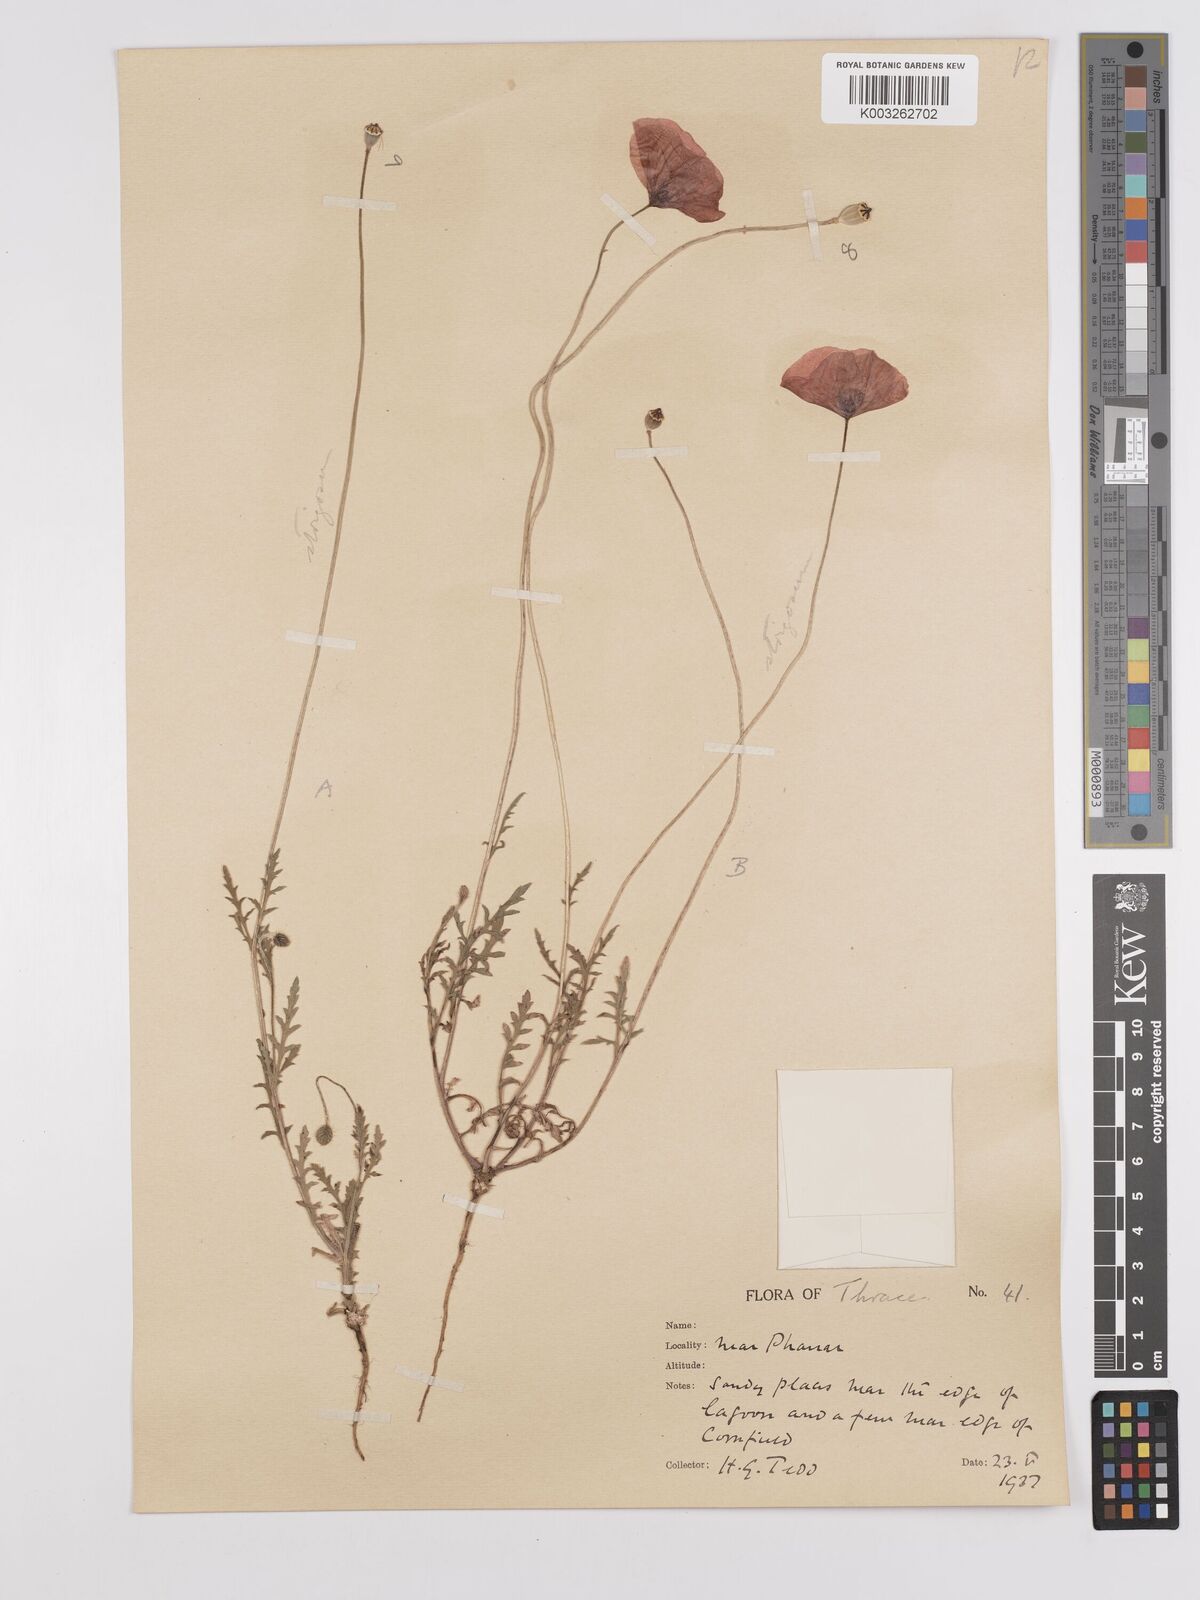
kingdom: Plantae
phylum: Tracheophyta
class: Magnoliopsida
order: Ranunculales
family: Papaveraceae
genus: Papaver
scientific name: Papaver
